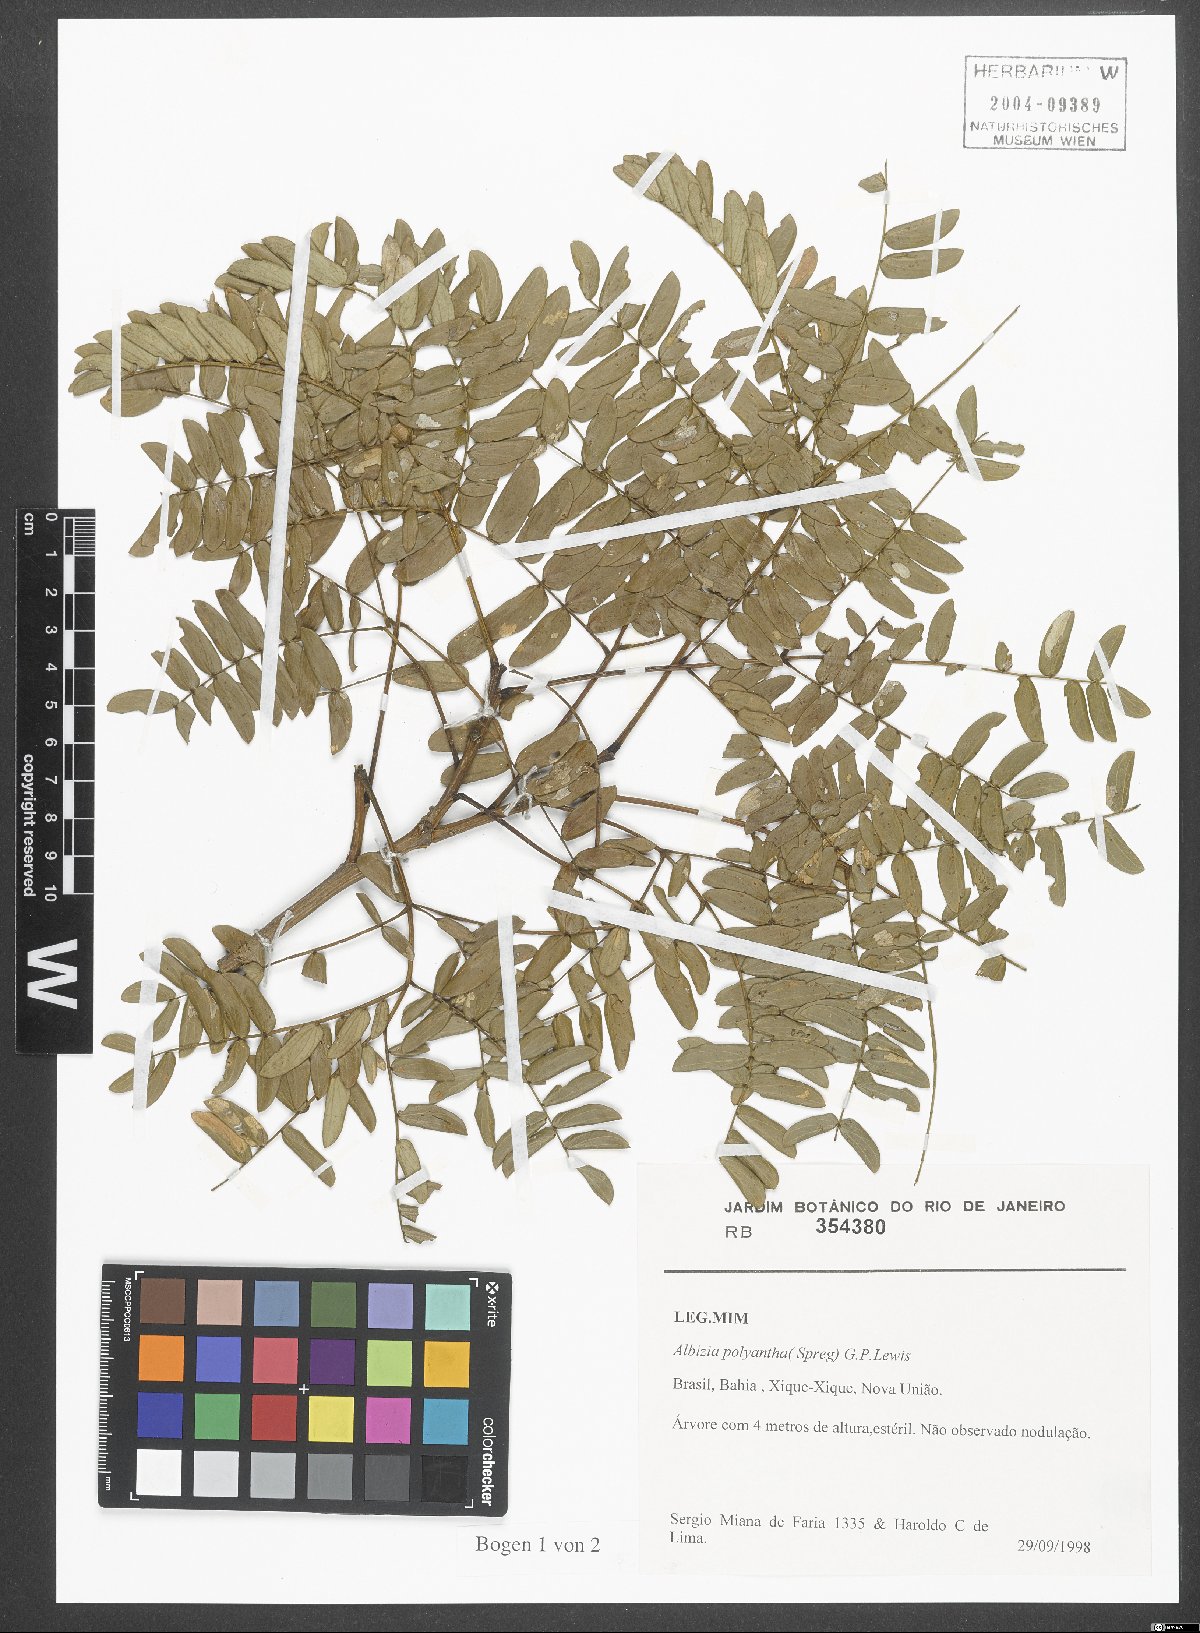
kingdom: Plantae
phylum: Tracheophyta
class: Magnoliopsida
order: Fabales
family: Fabaceae
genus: Albizia
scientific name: Albizia inundata
